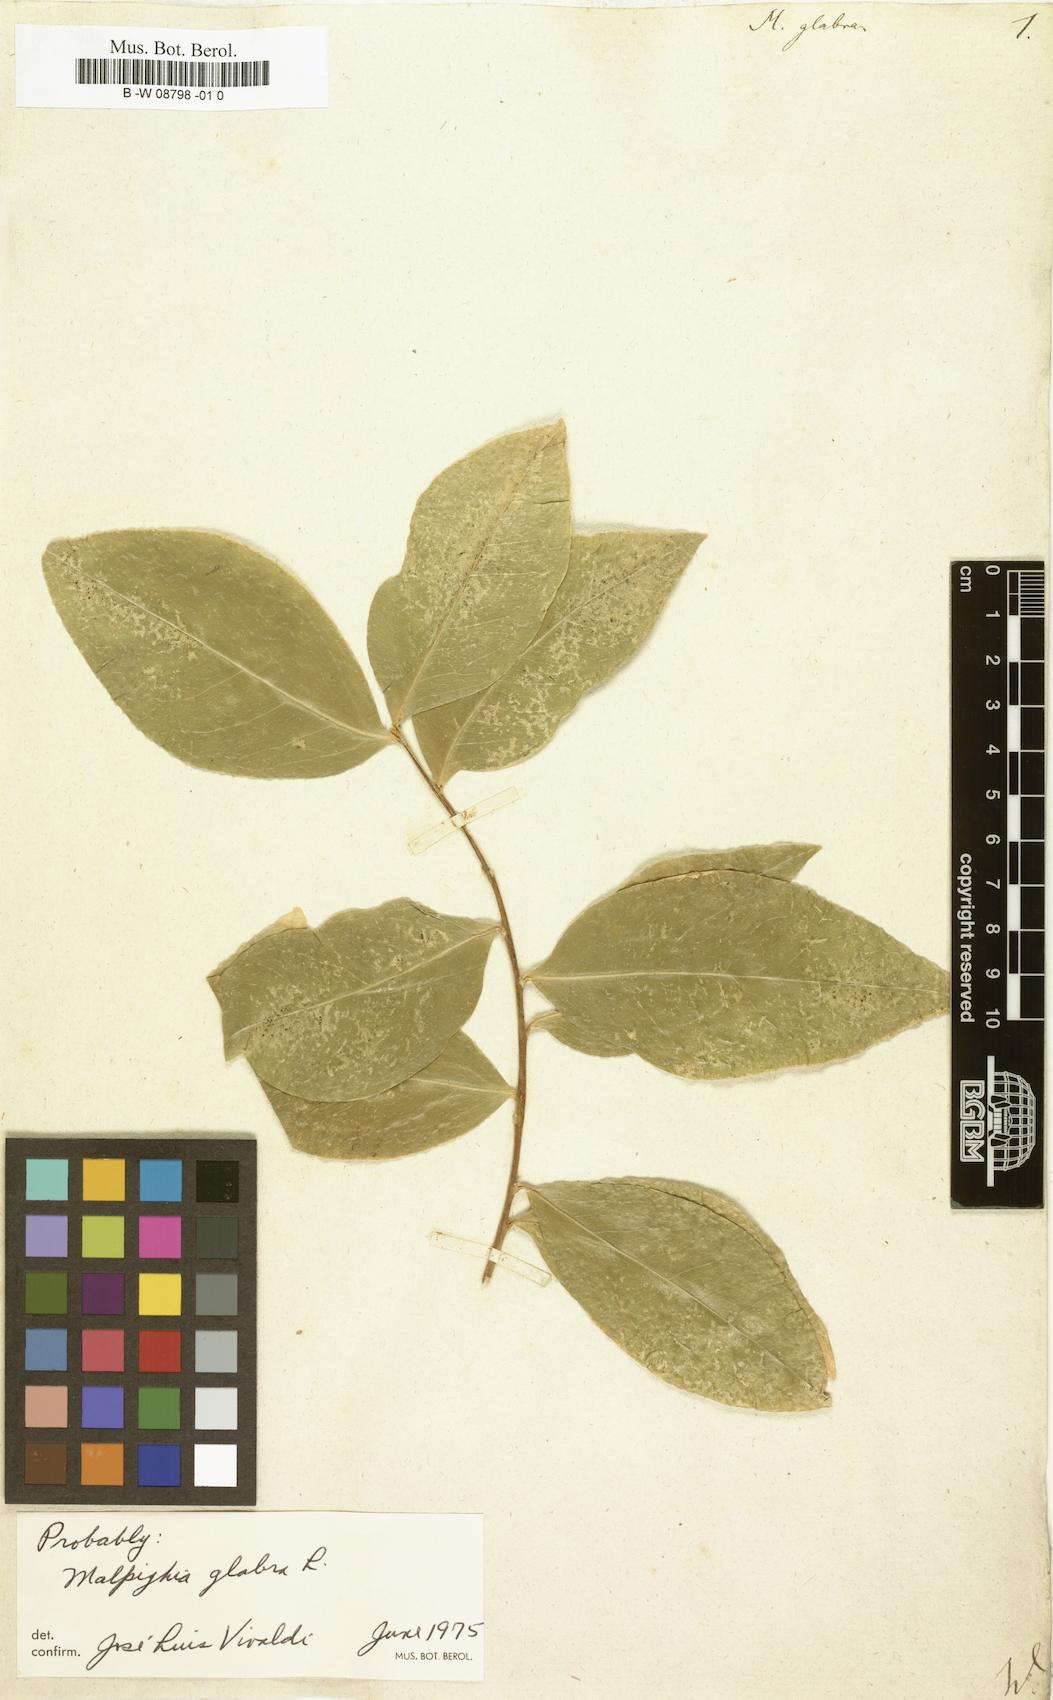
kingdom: Plantae
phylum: Tracheophyta
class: Magnoliopsida
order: Malpighiales
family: Malpighiaceae
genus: Malpighia
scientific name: Malpighia glabra
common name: Barbados cherry
